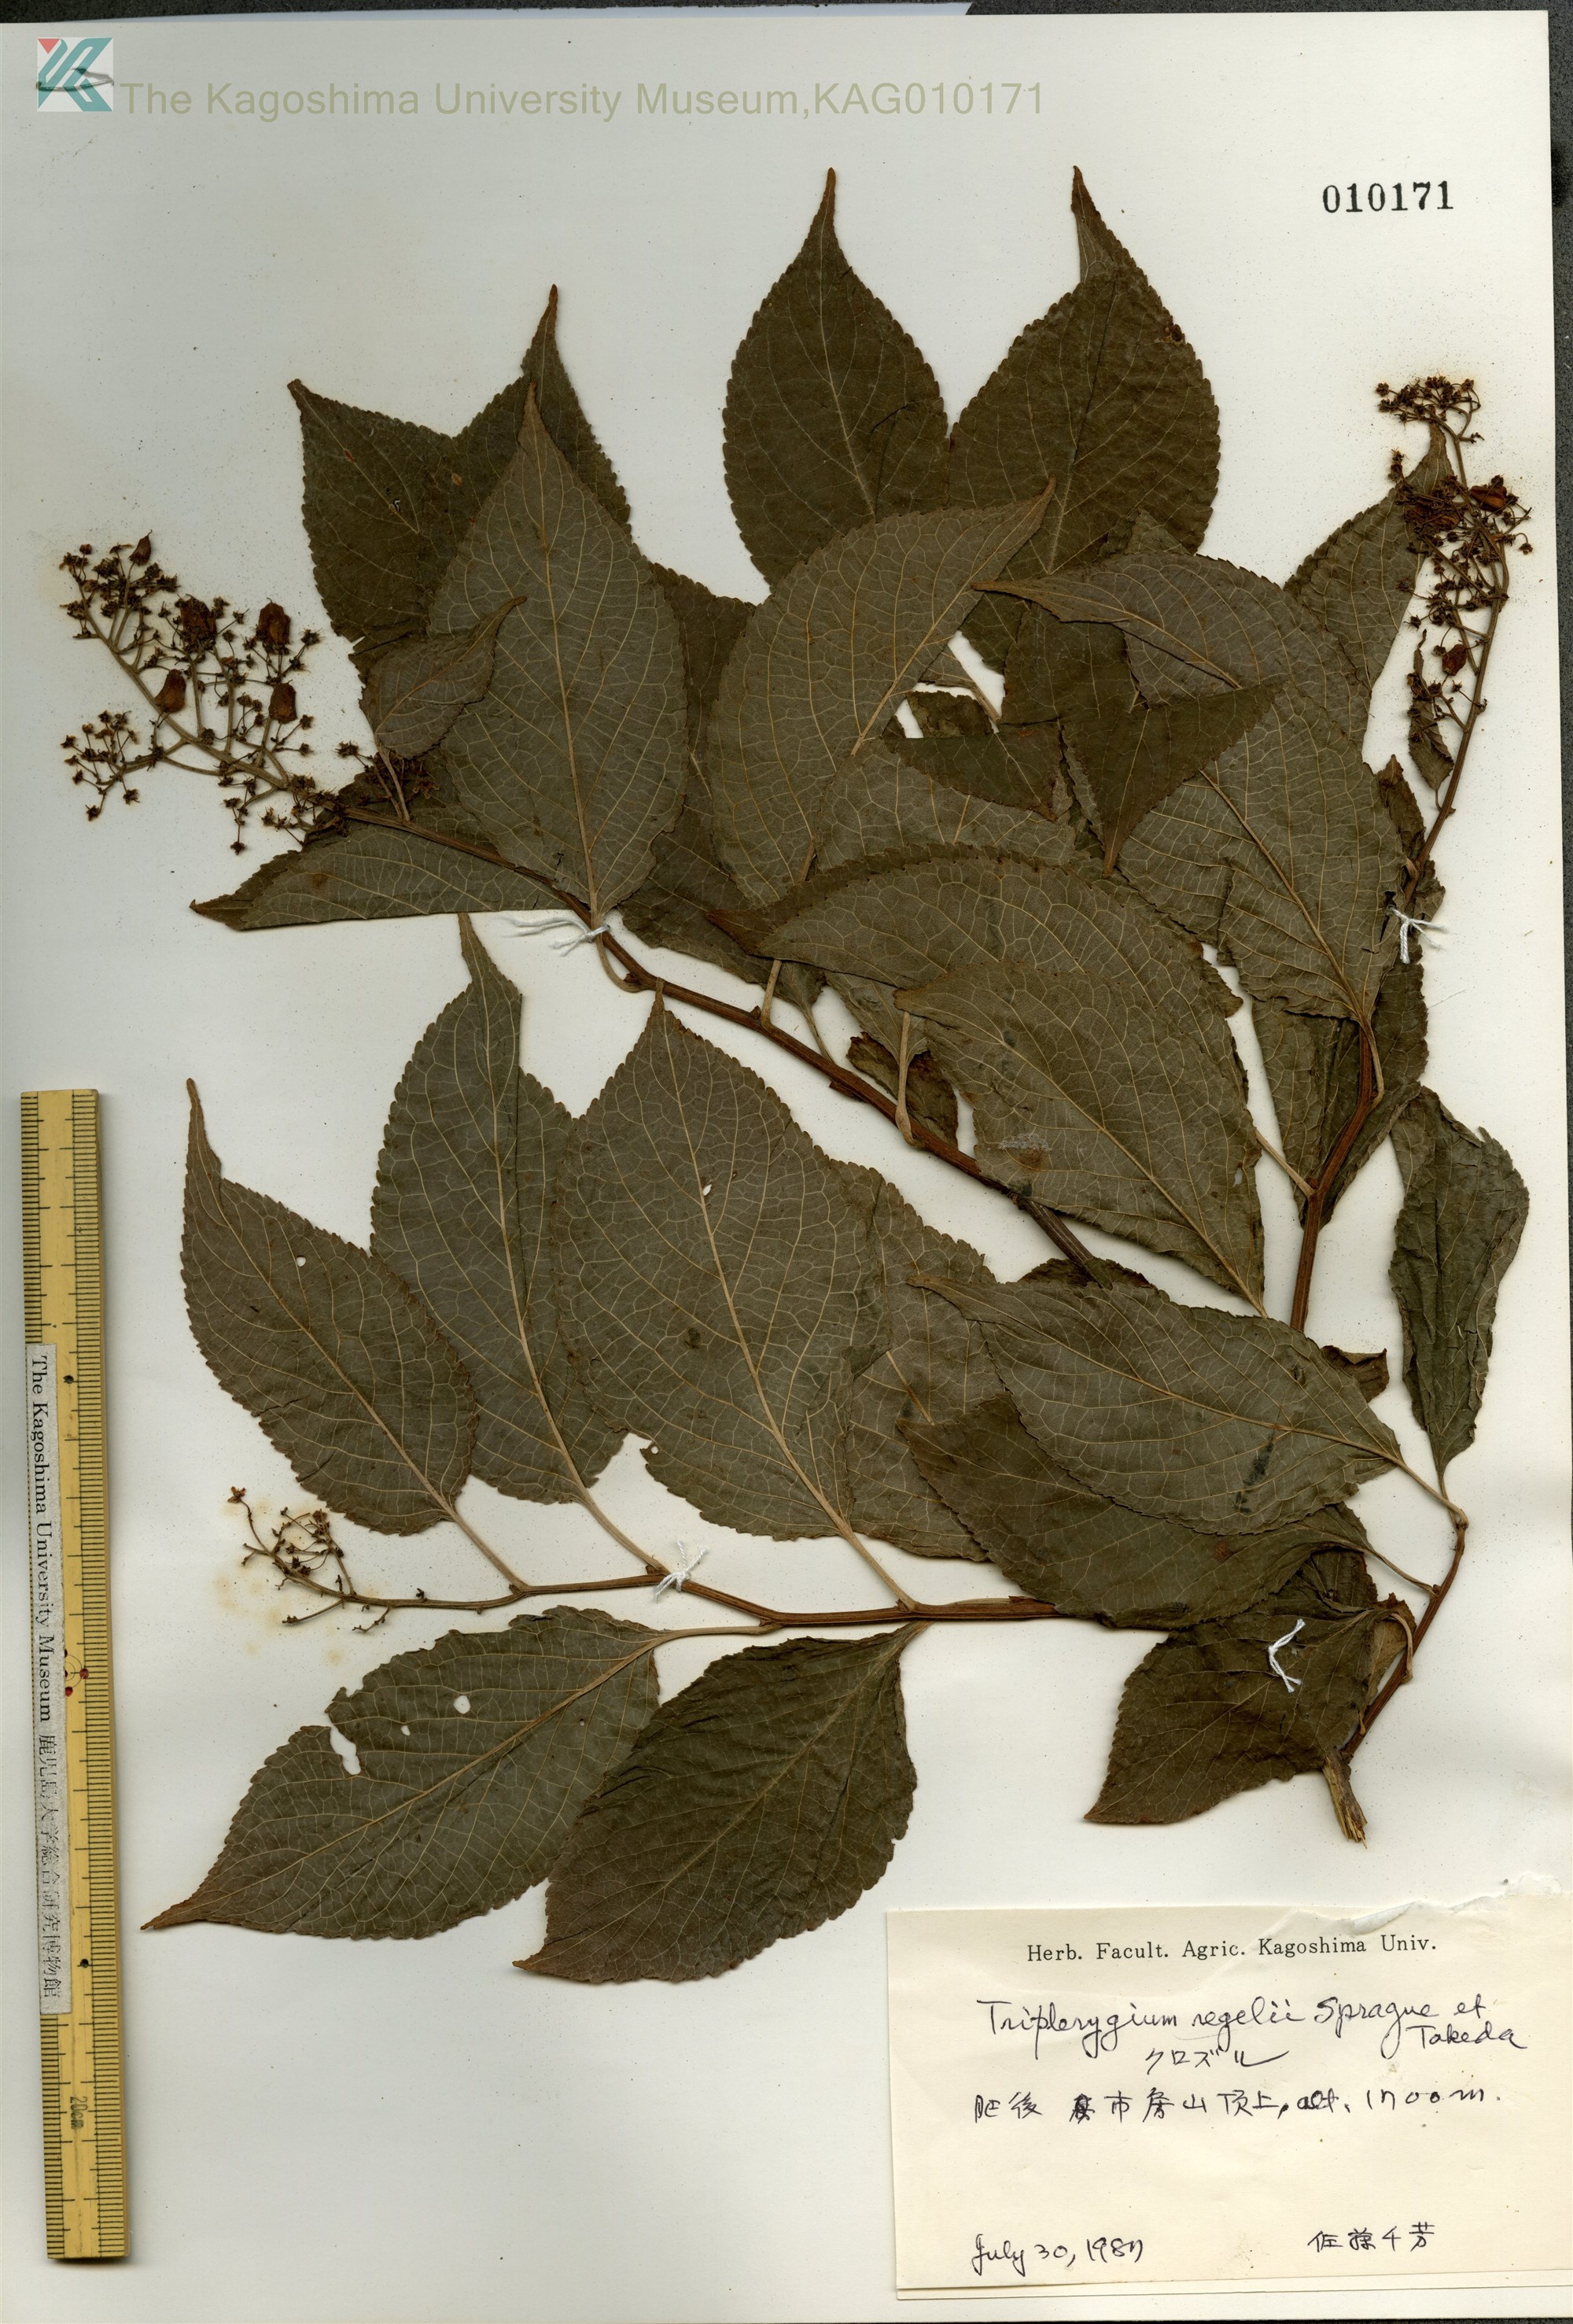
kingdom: Plantae
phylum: Tracheophyta
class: Magnoliopsida
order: Celastrales
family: Celastraceae
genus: Tripterygium
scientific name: Tripterygium wilfordii
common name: クロヅル
